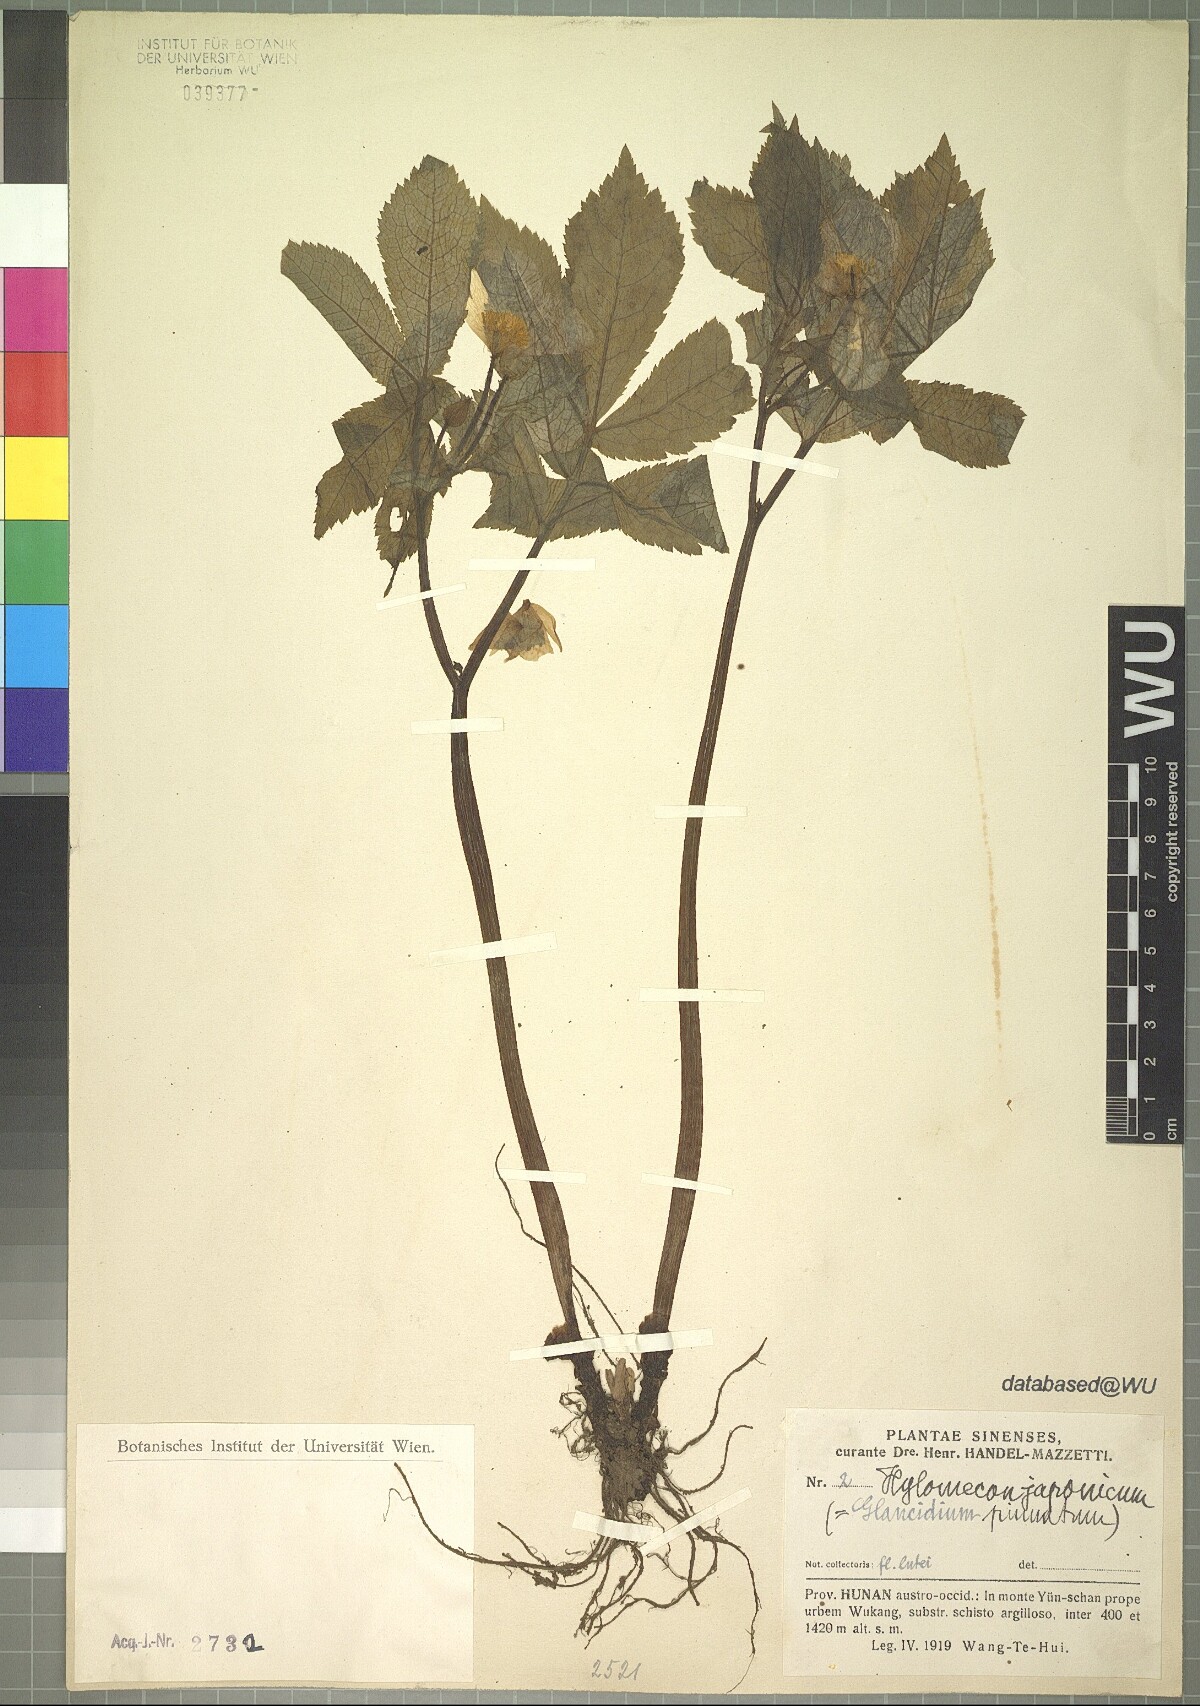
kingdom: Plantae
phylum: Tracheophyta
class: Magnoliopsida
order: Ranunculales
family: Papaveraceae
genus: Hylomecon
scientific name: Hylomecon japonicum
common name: Forest-poppy
